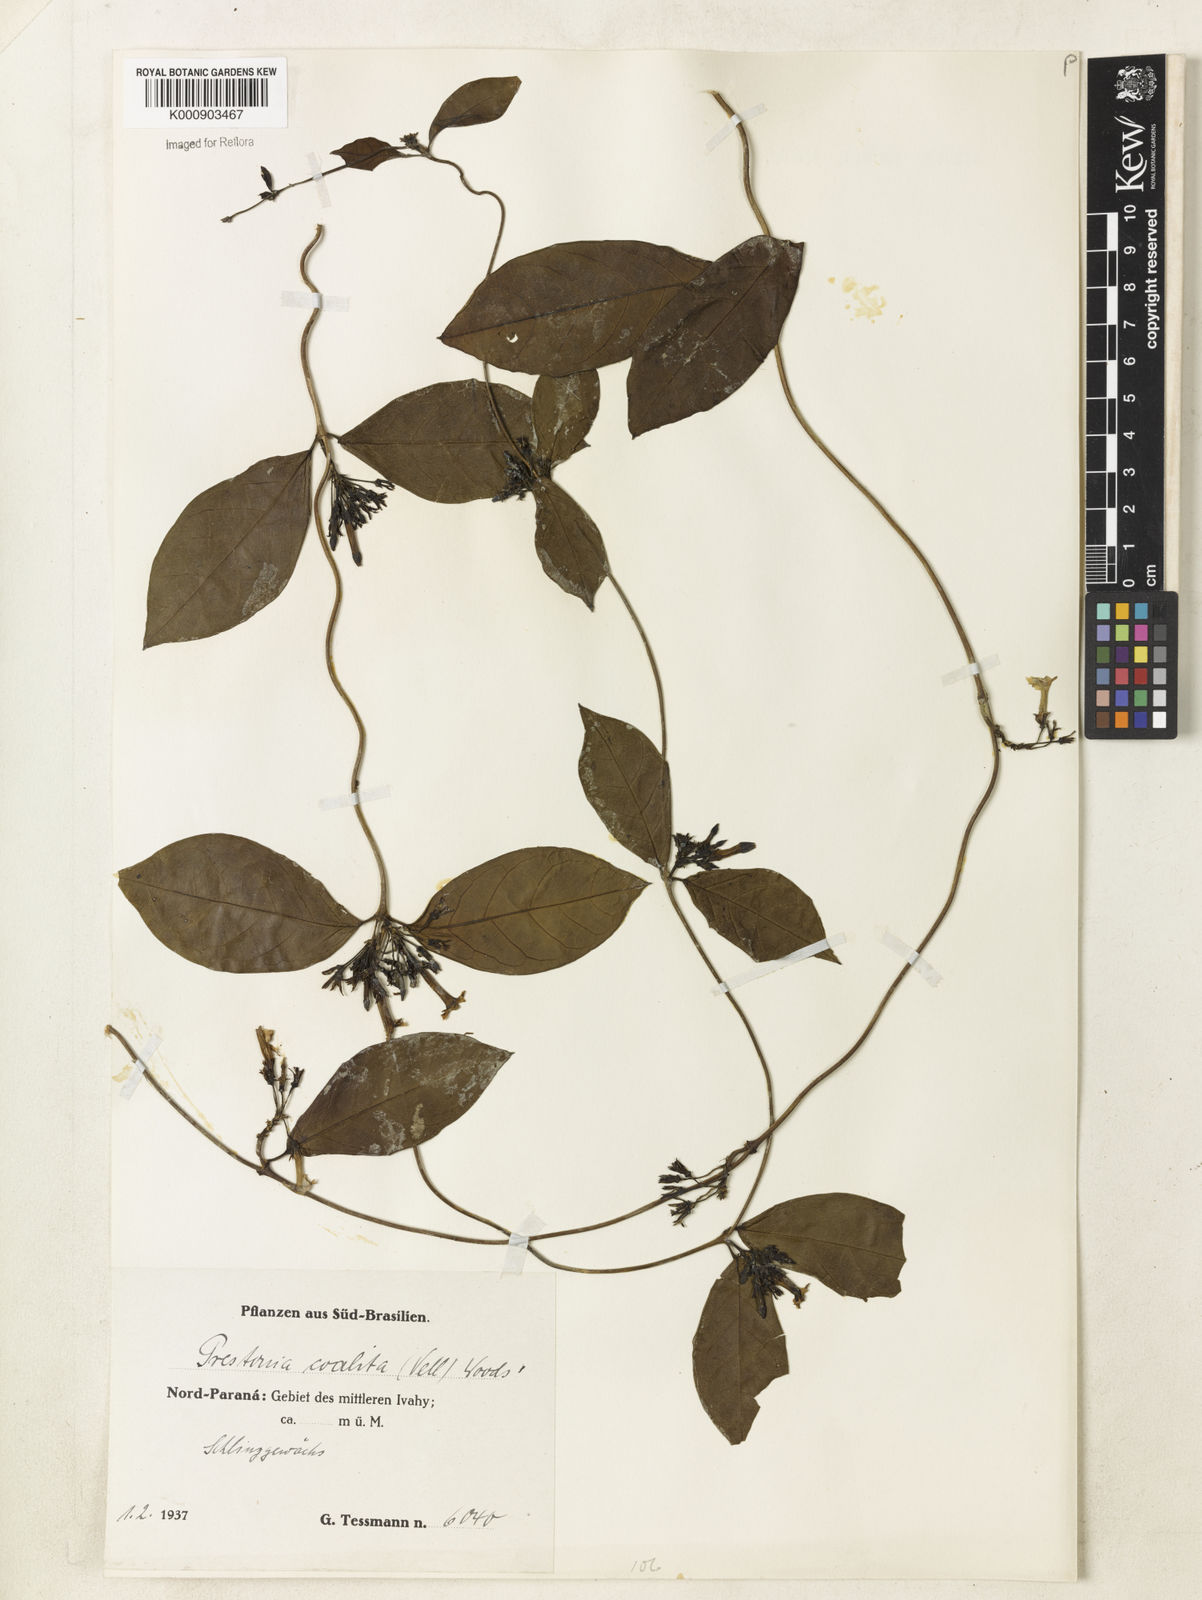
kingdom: Plantae
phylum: Tracheophyta
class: Magnoliopsida
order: Gentianales
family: Apocynaceae
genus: Prestonia
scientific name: Prestonia coalita
